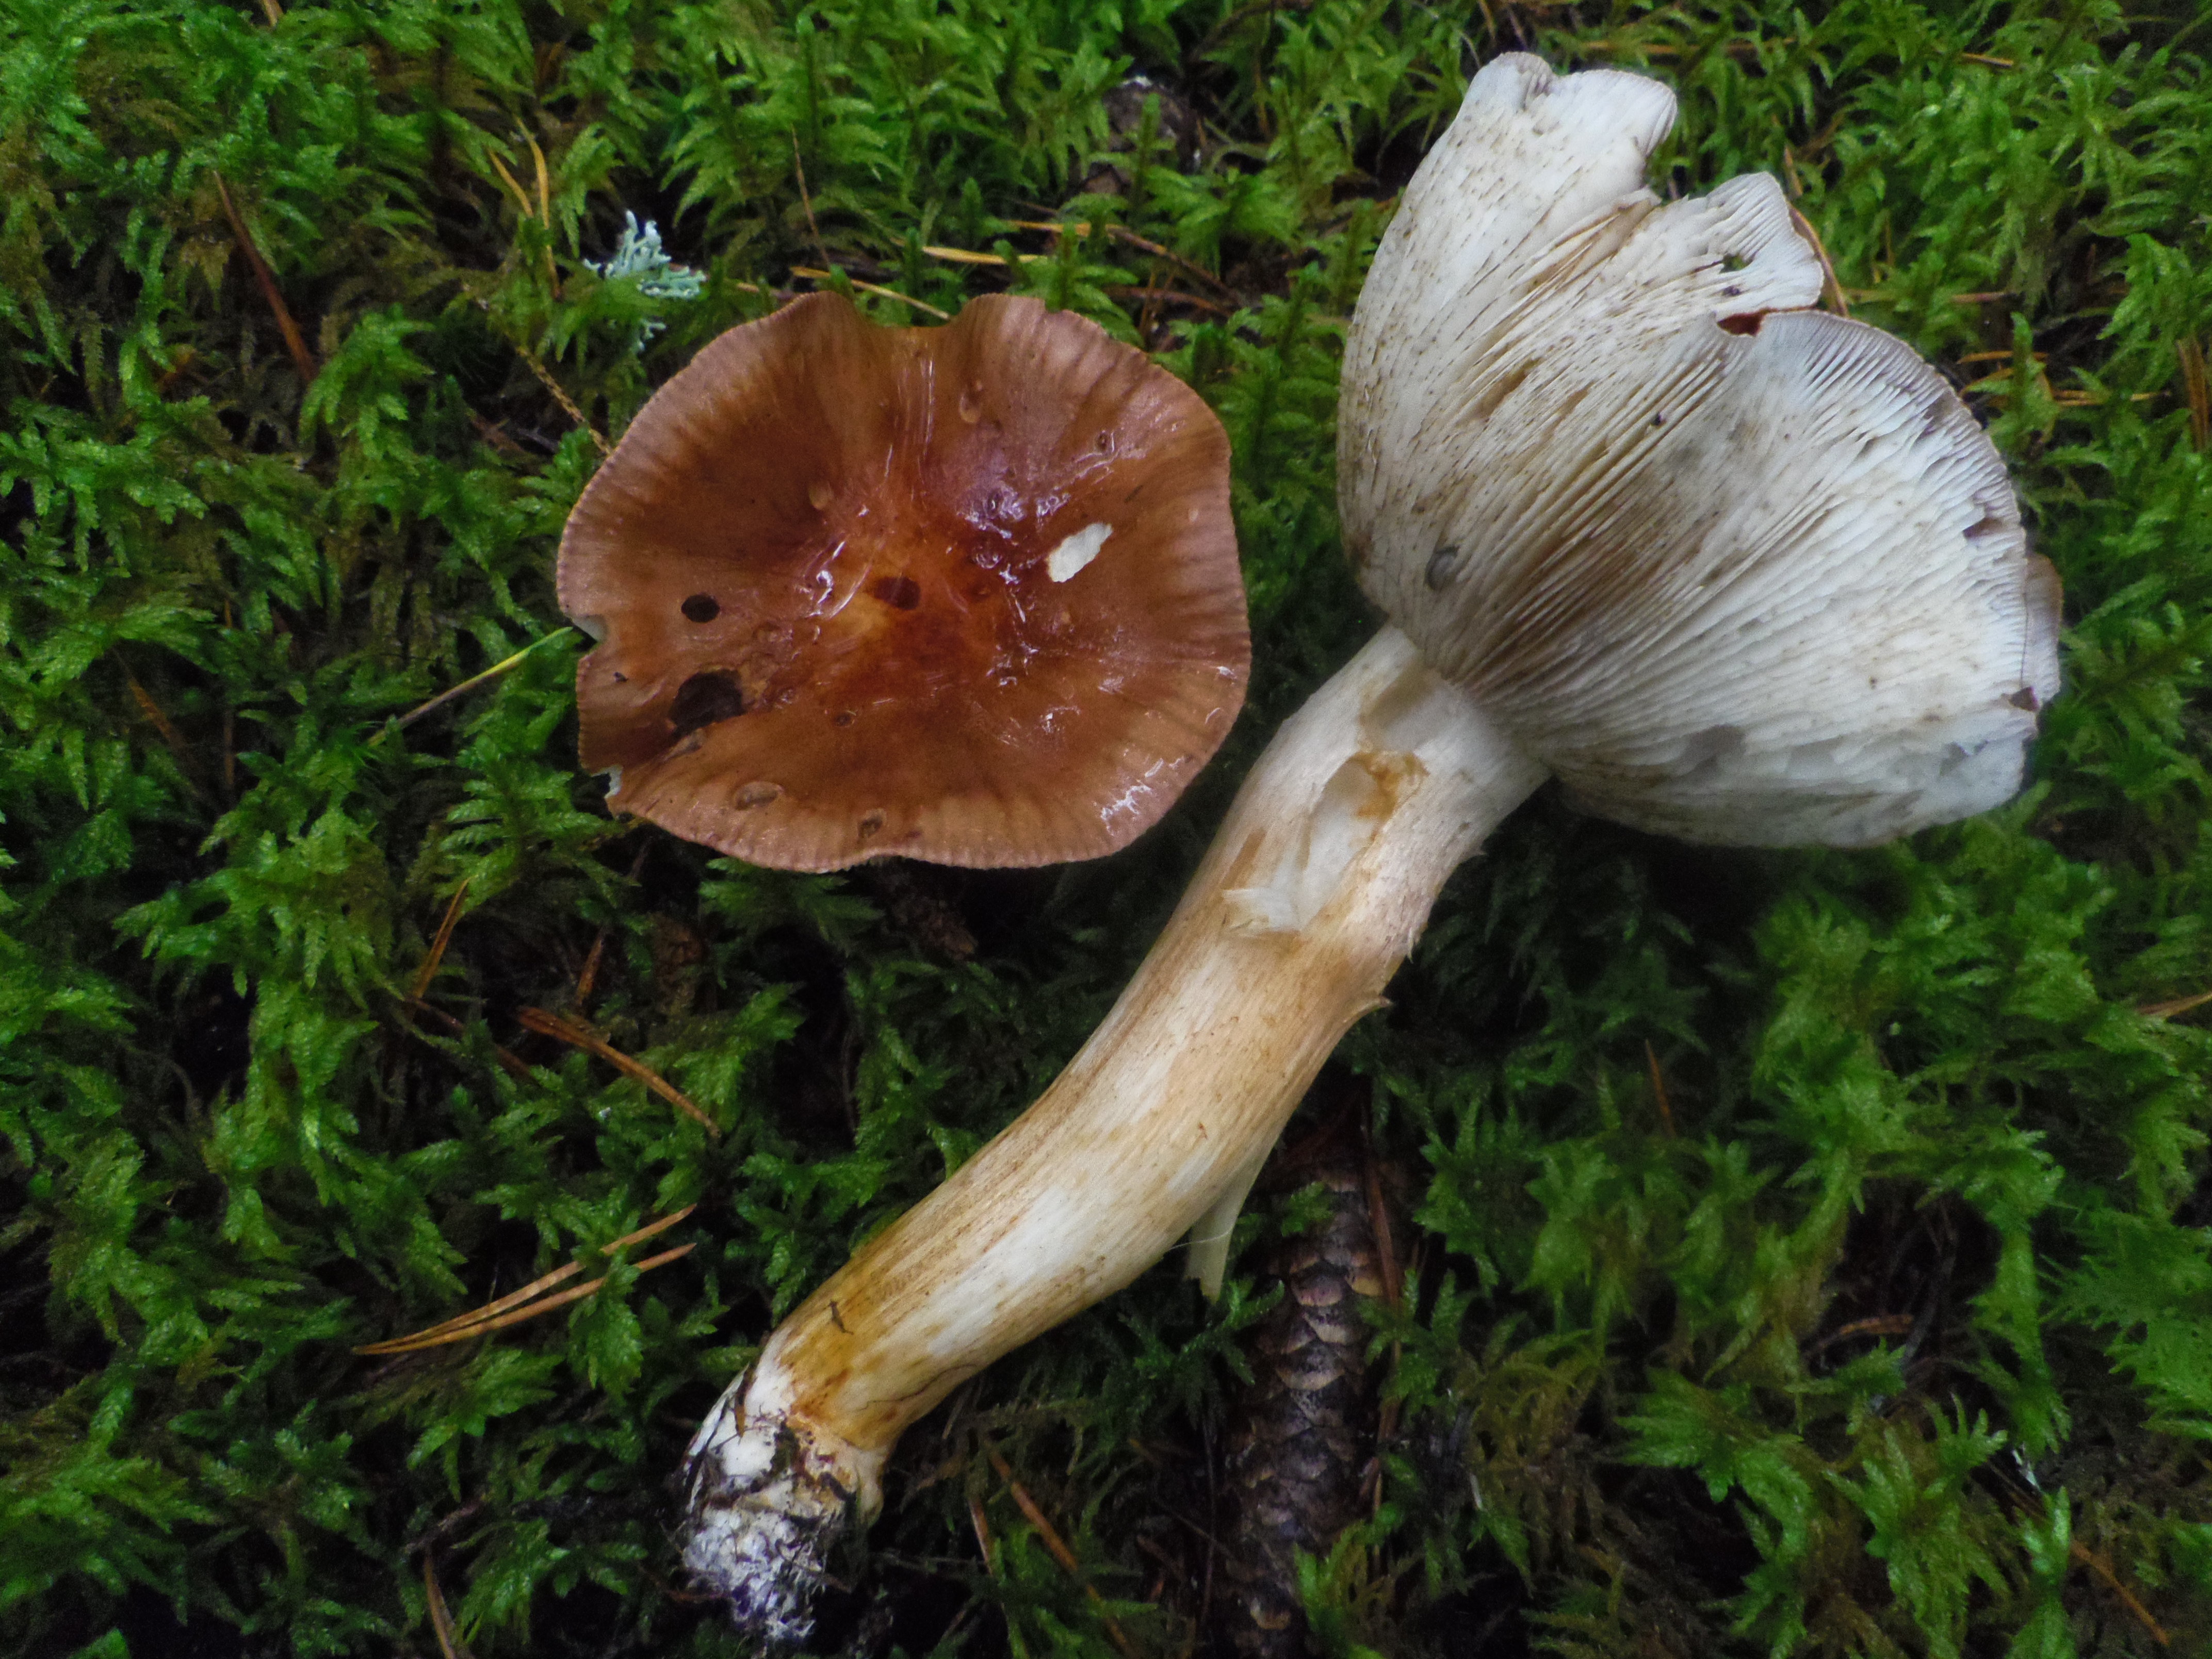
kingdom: Fungi
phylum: Basidiomycota
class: Agaricomycetes
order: Agaricales
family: Tricholomataceae
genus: Tricholoma
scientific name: Tricholoma stans
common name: Upright knight
